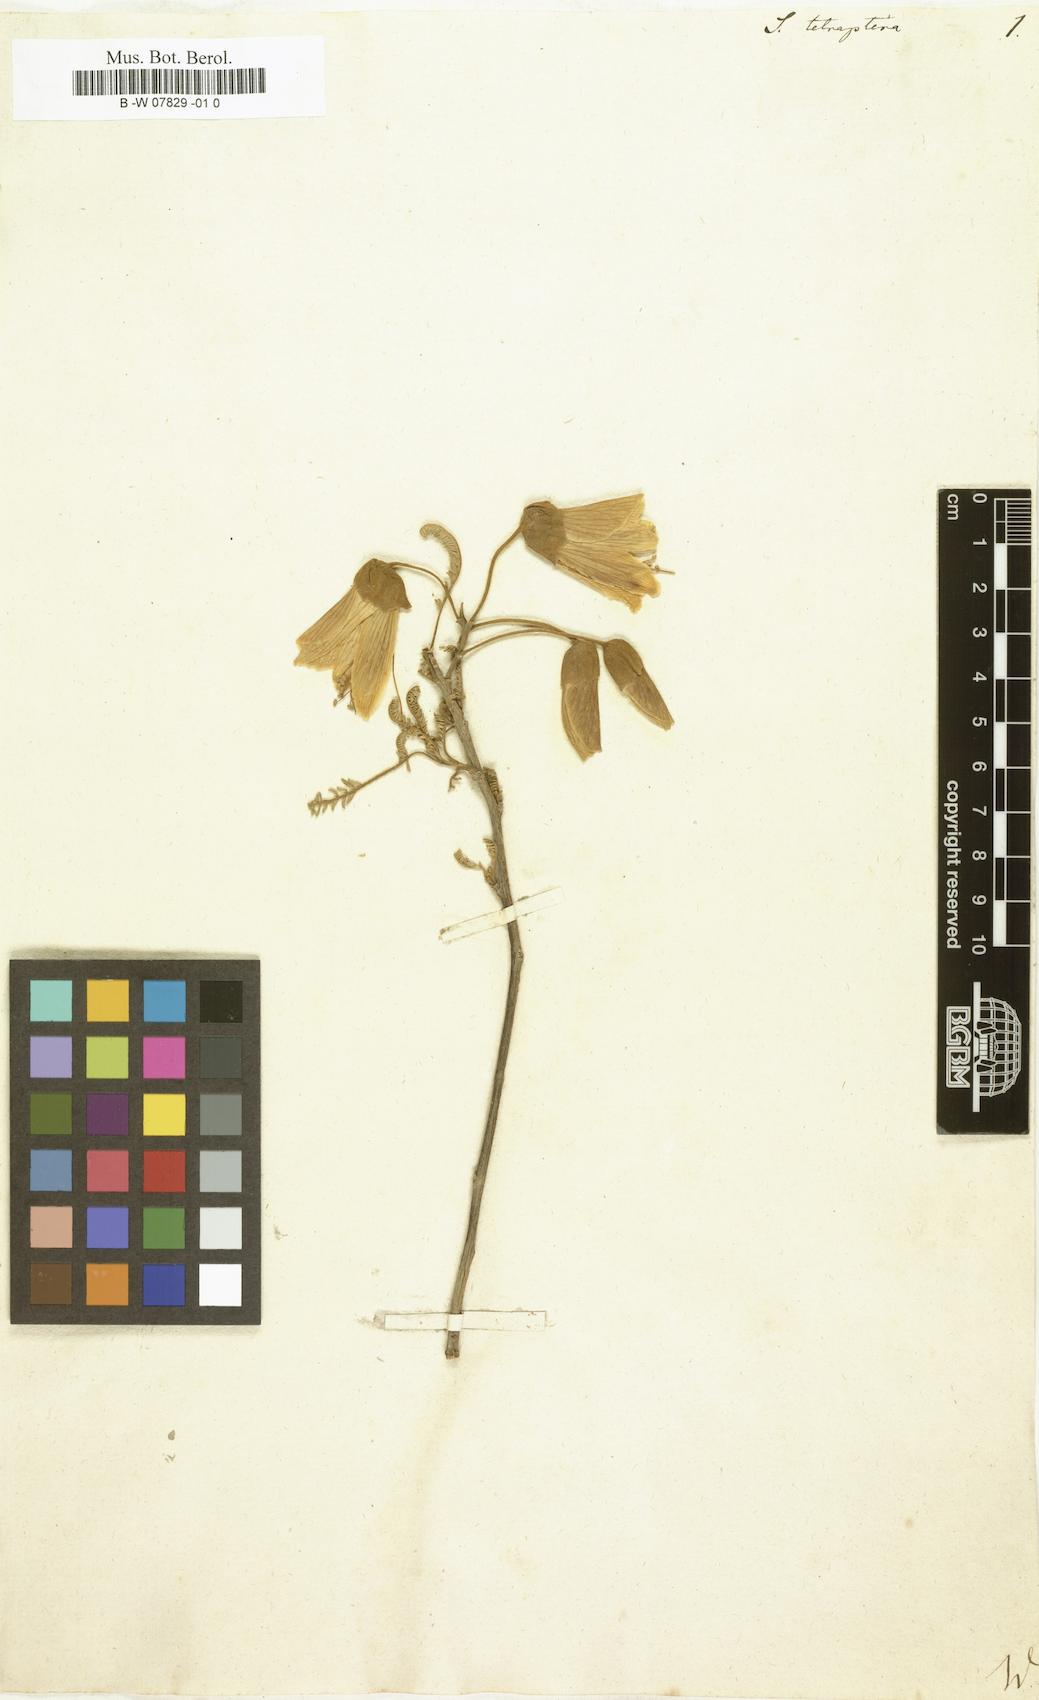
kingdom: Plantae
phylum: Tracheophyta
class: Magnoliopsida
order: Fabales
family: Fabaceae
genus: Sophora
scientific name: Sophora tetraptera
